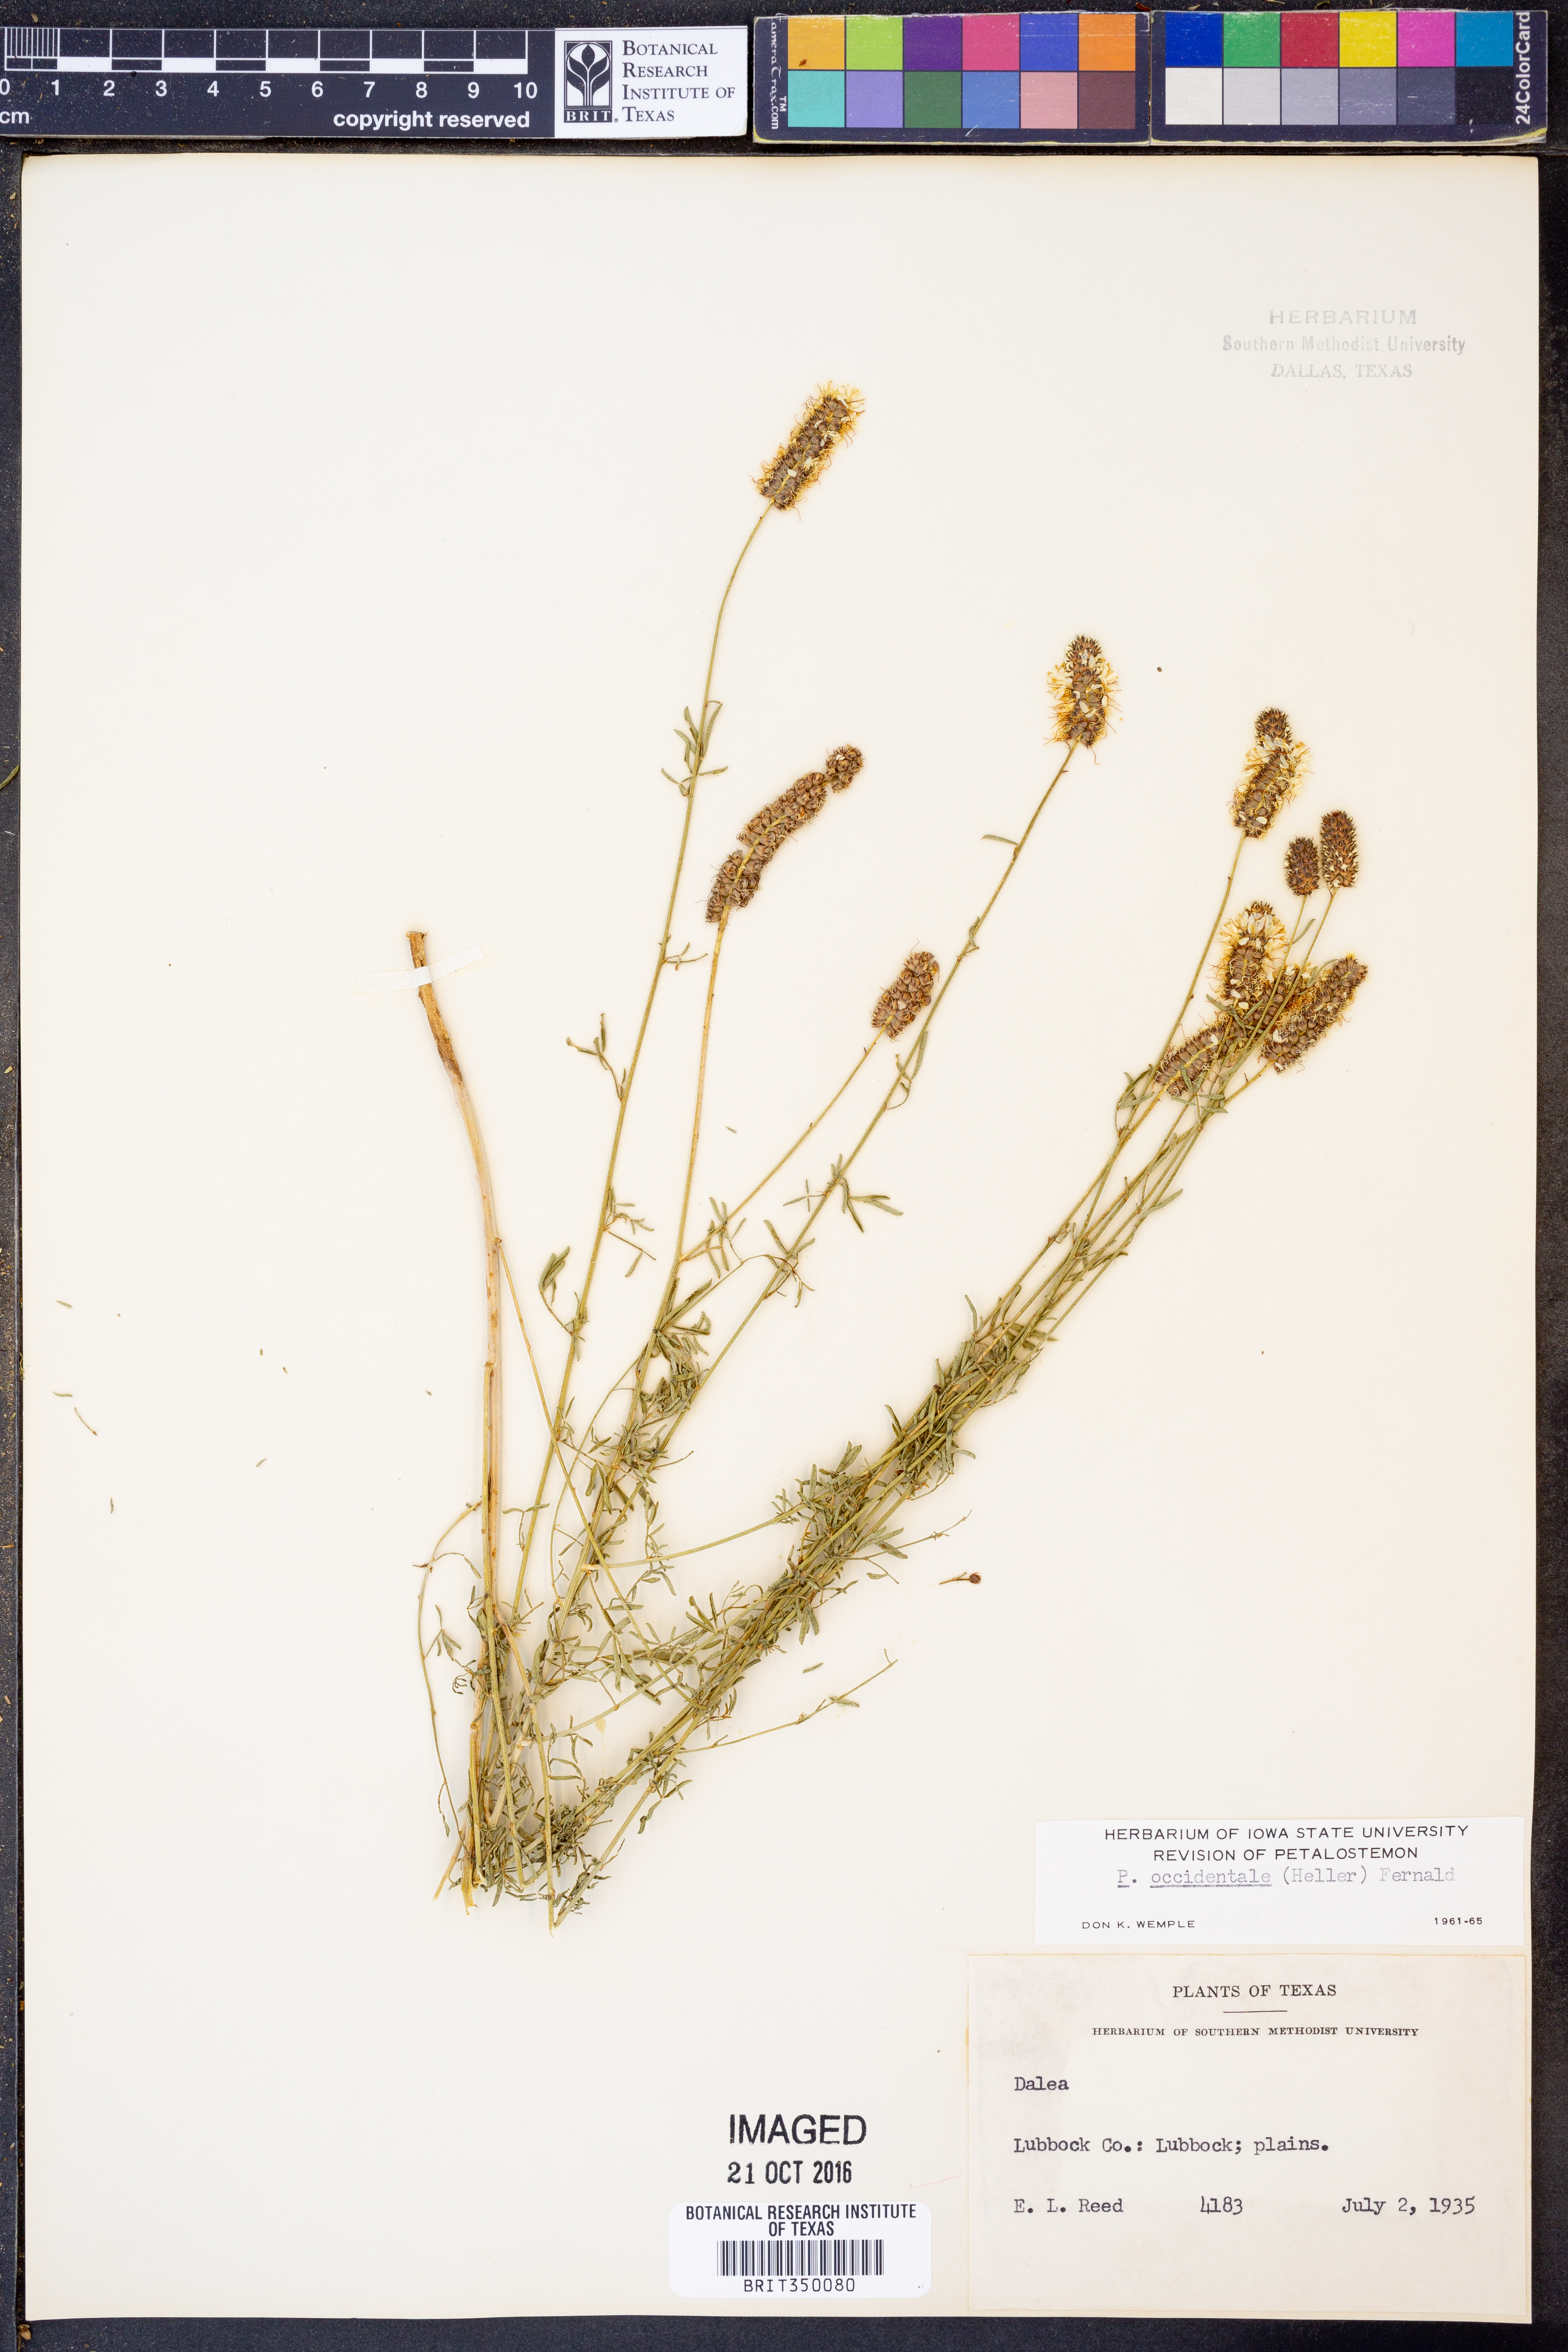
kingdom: Plantae
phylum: Tracheophyta
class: Magnoliopsida
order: Fabales
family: Fabaceae
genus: Dalea
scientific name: Dalea candida
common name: White prairie-clover
